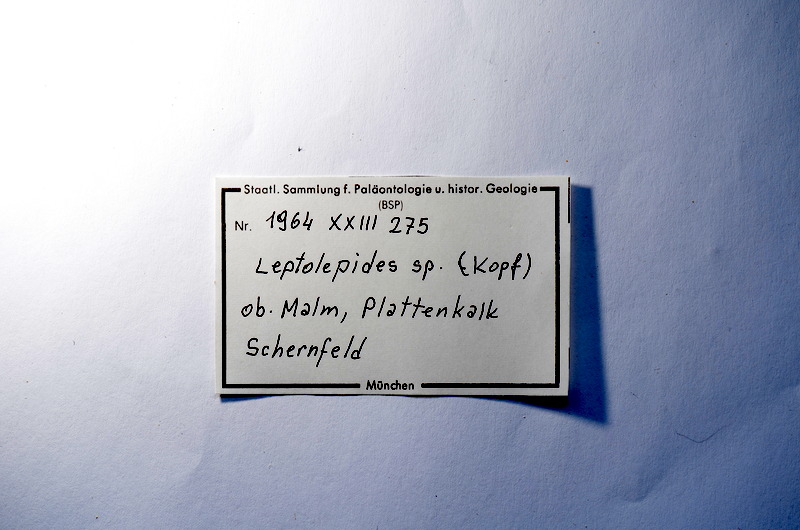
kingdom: Animalia
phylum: Chordata
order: Salmoniformes
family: Orthogonikleithridae
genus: Leptolepides
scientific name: Leptolepides
